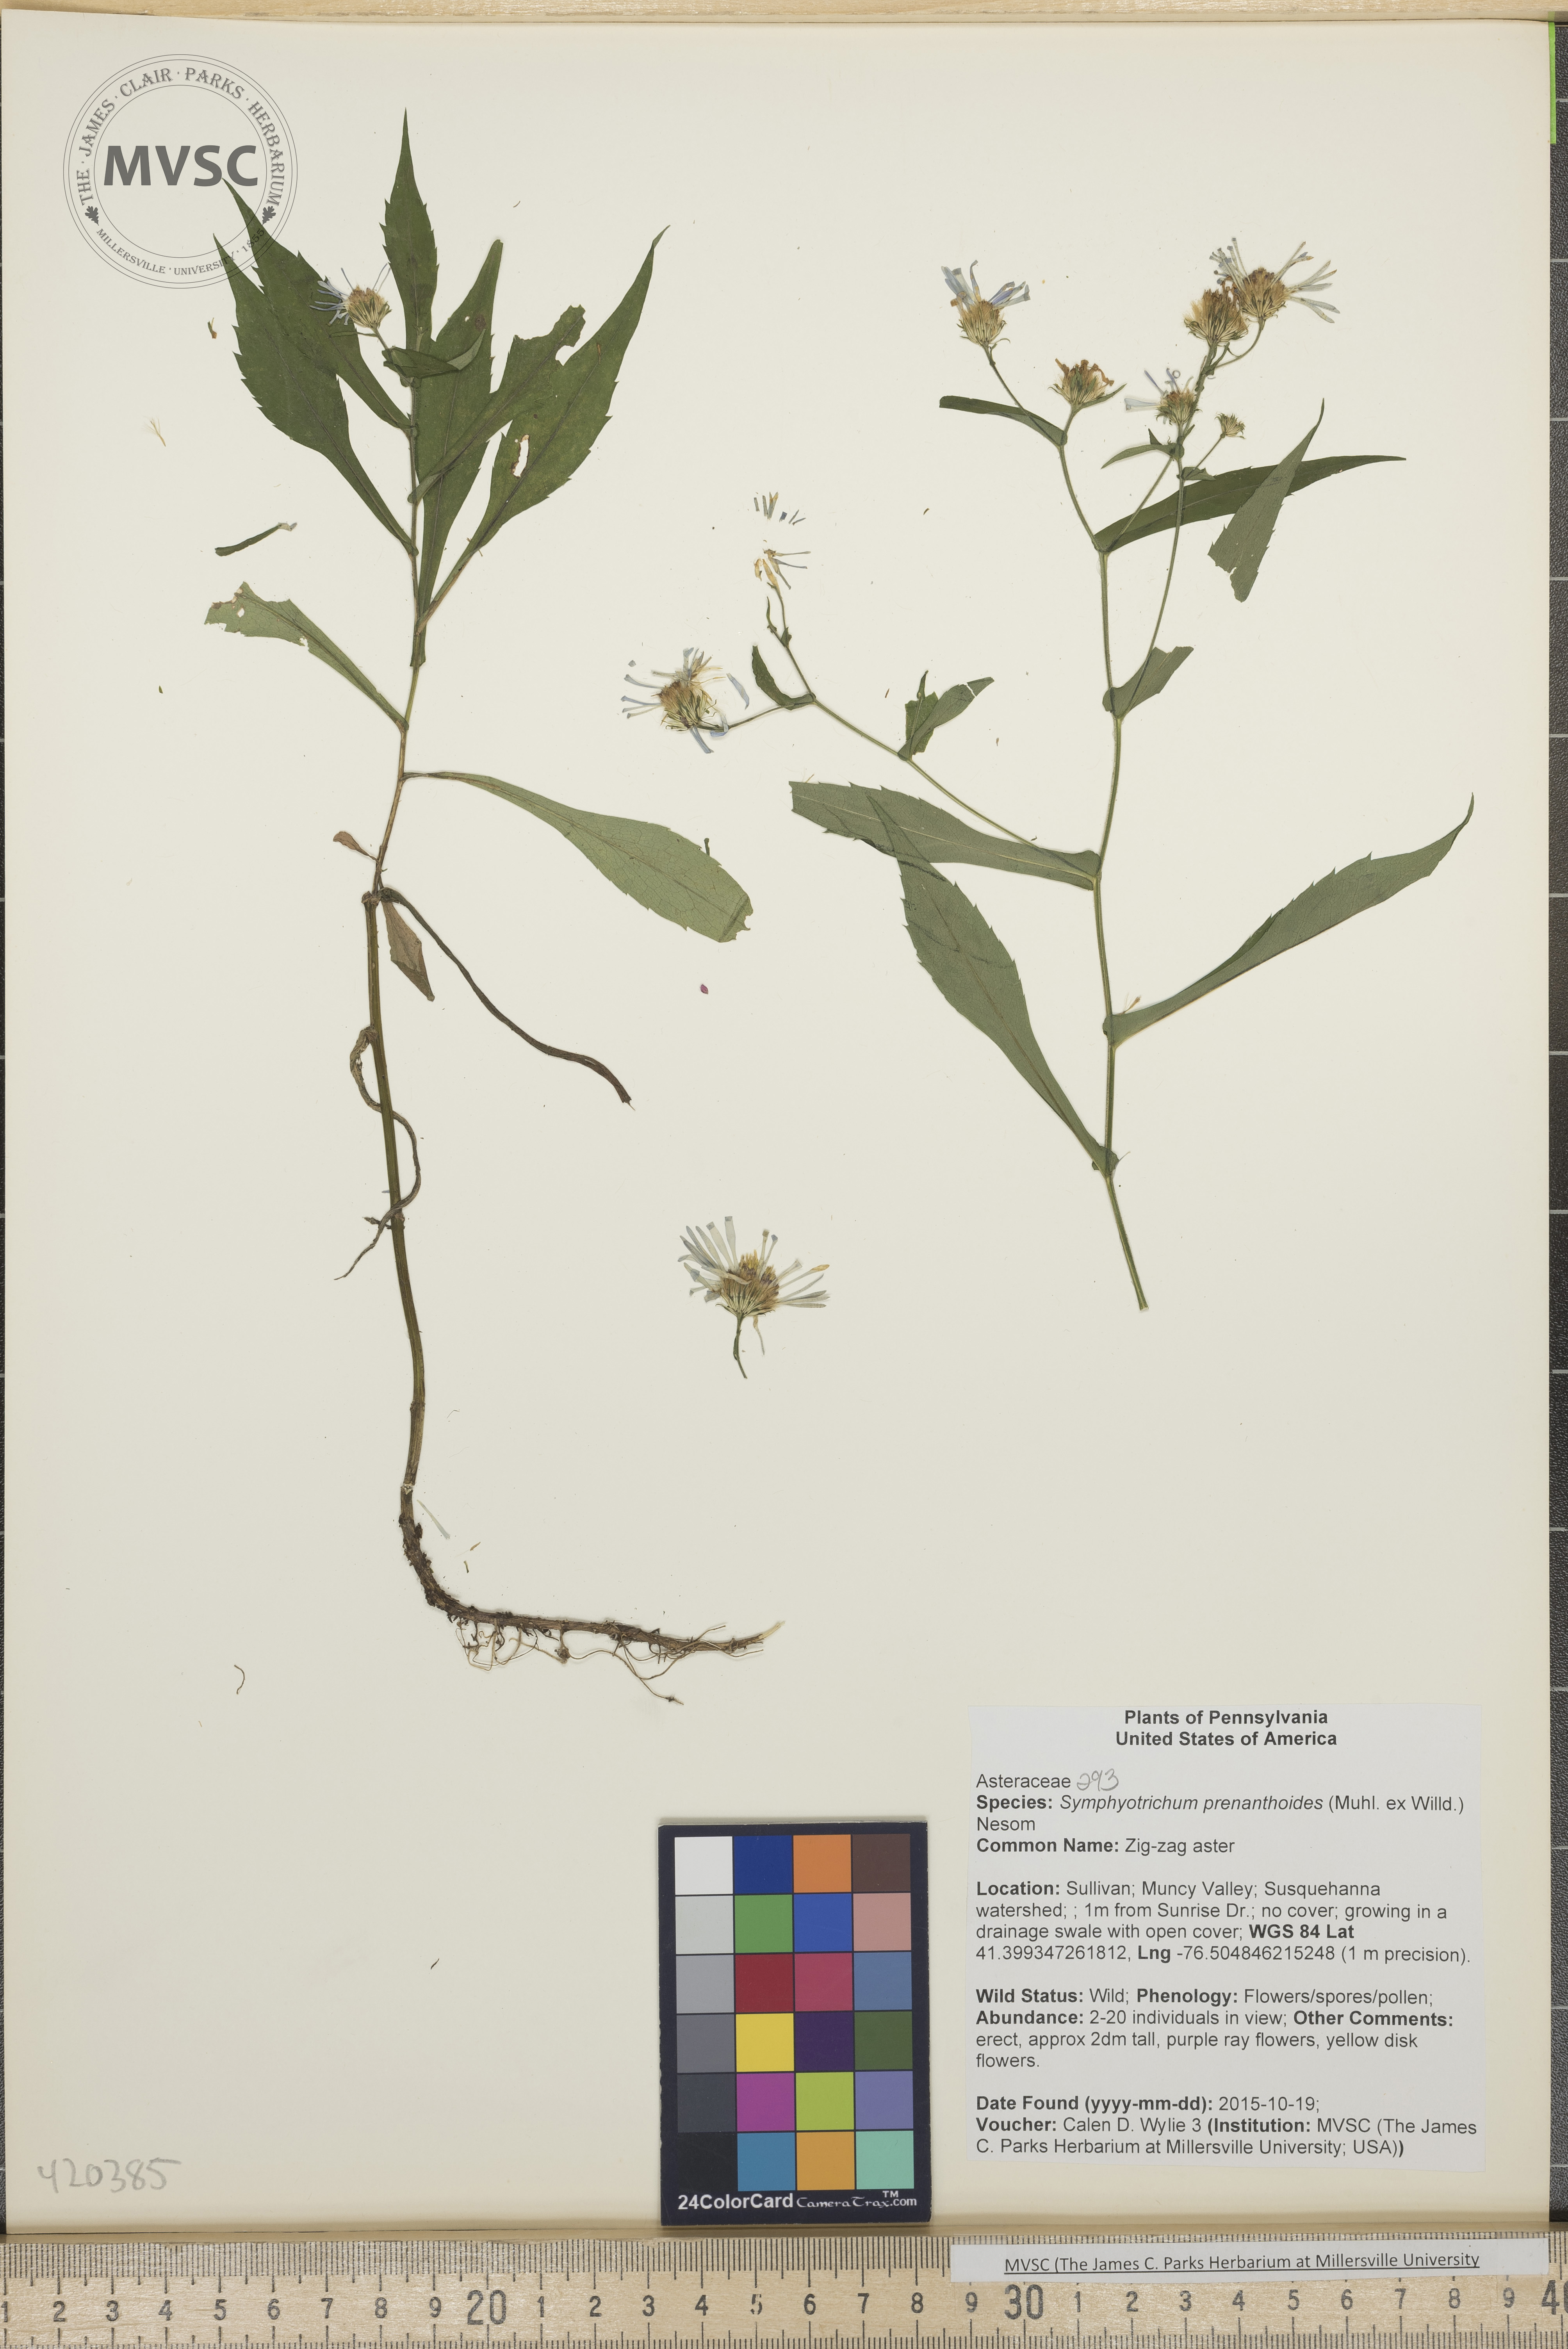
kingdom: Plantae
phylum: Tracheophyta
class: Magnoliopsida
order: Asterales
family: Asteraceae
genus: Symphyotrichum
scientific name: Symphyotrichum prenanthoides
